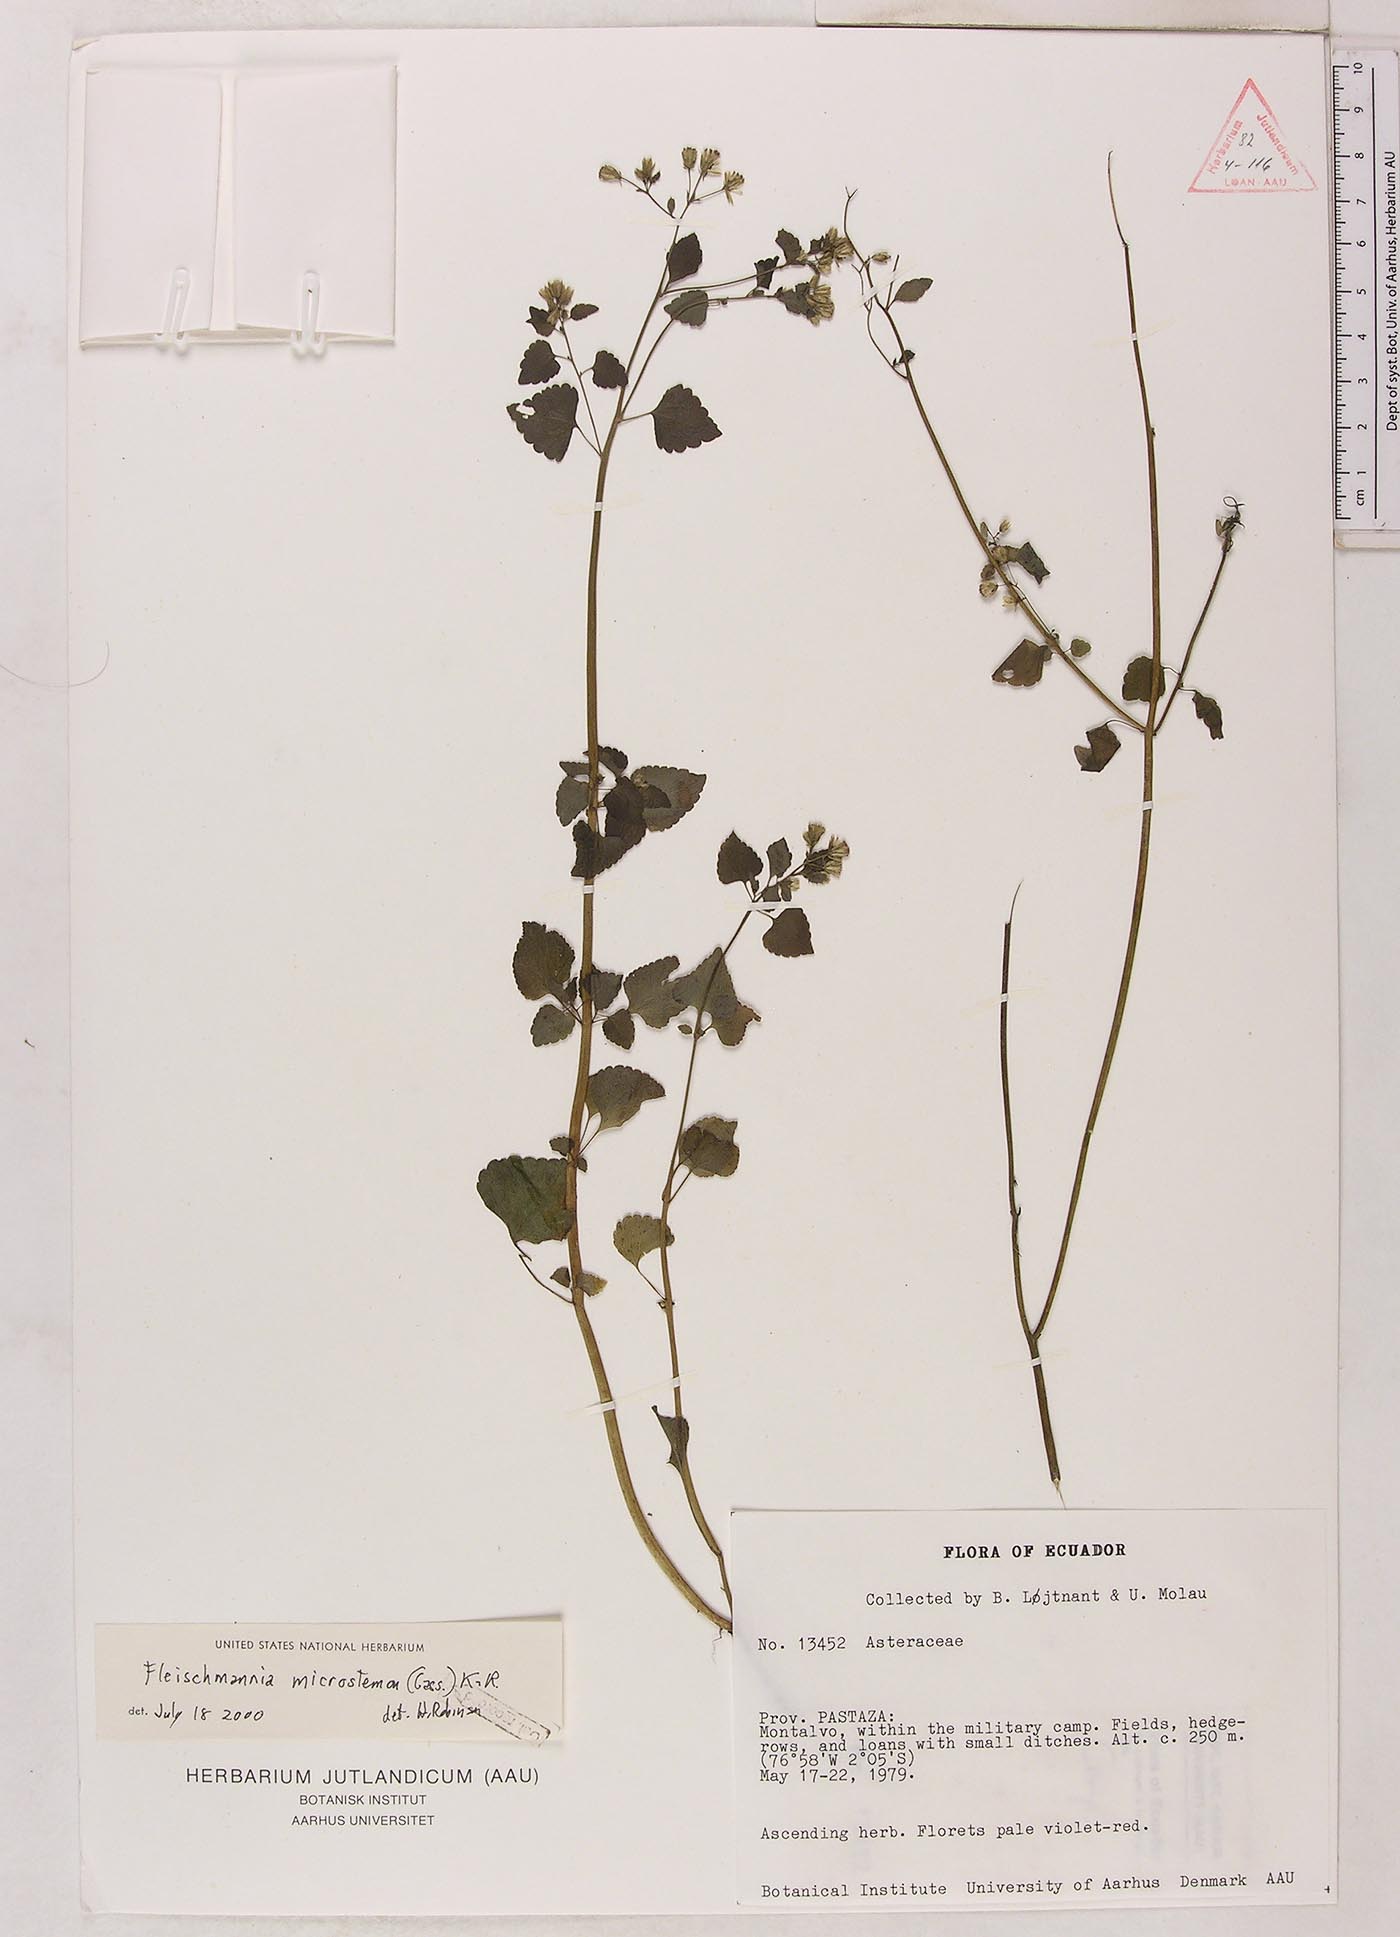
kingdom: Plantae
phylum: Tracheophyta
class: Magnoliopsida
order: Asterales
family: Asteraceae
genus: Fleischmannia
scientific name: Fleischmannia microstemon
